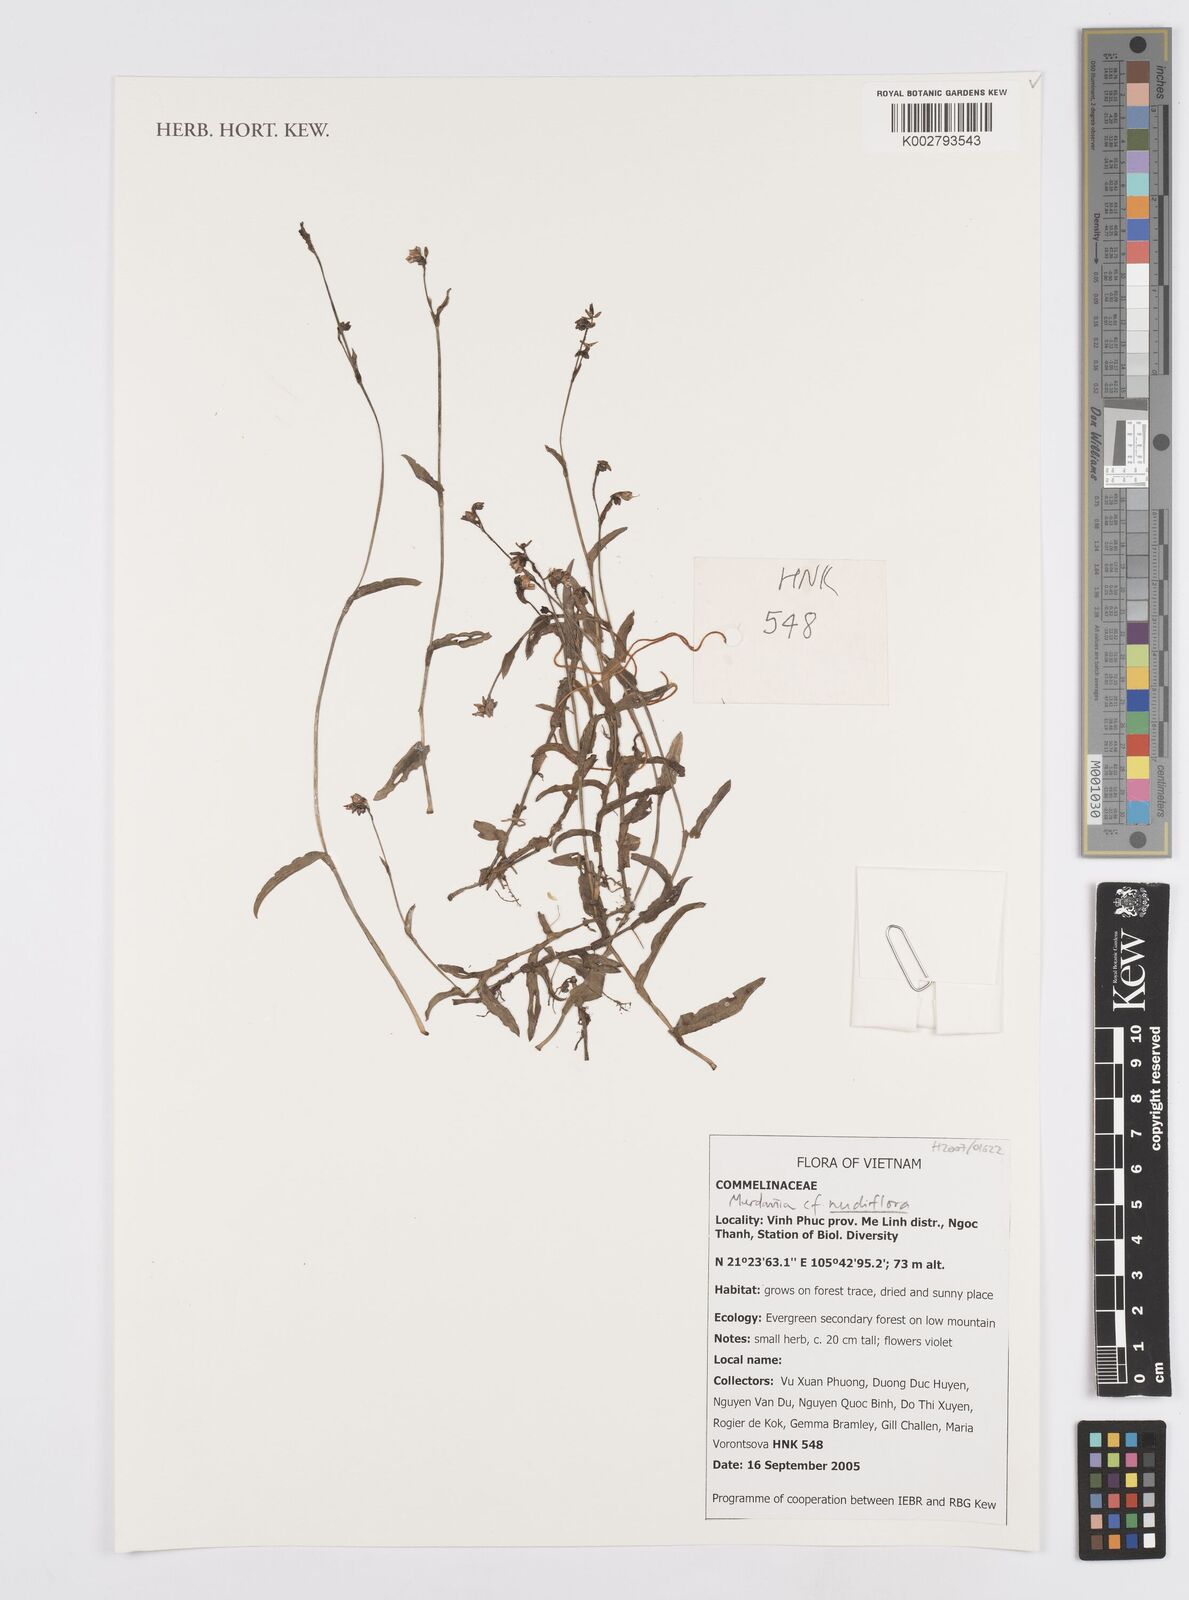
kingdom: Plantae
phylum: Tracheophyta
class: Liliopsida
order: Commelinales
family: Commelinaceae
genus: Murdannia
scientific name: Murdannia
